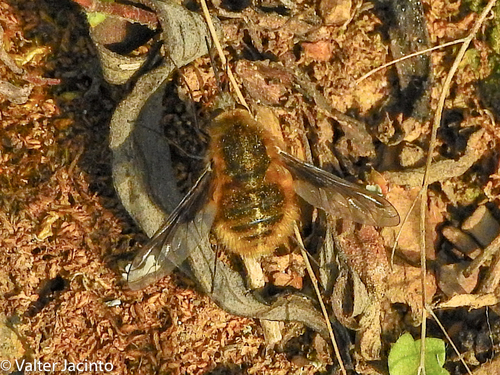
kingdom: Animalia
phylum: Arthropoda
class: Insecta
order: Diptera
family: Bombyliidae
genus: Bombylius
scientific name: Bombylius fimbriatus
